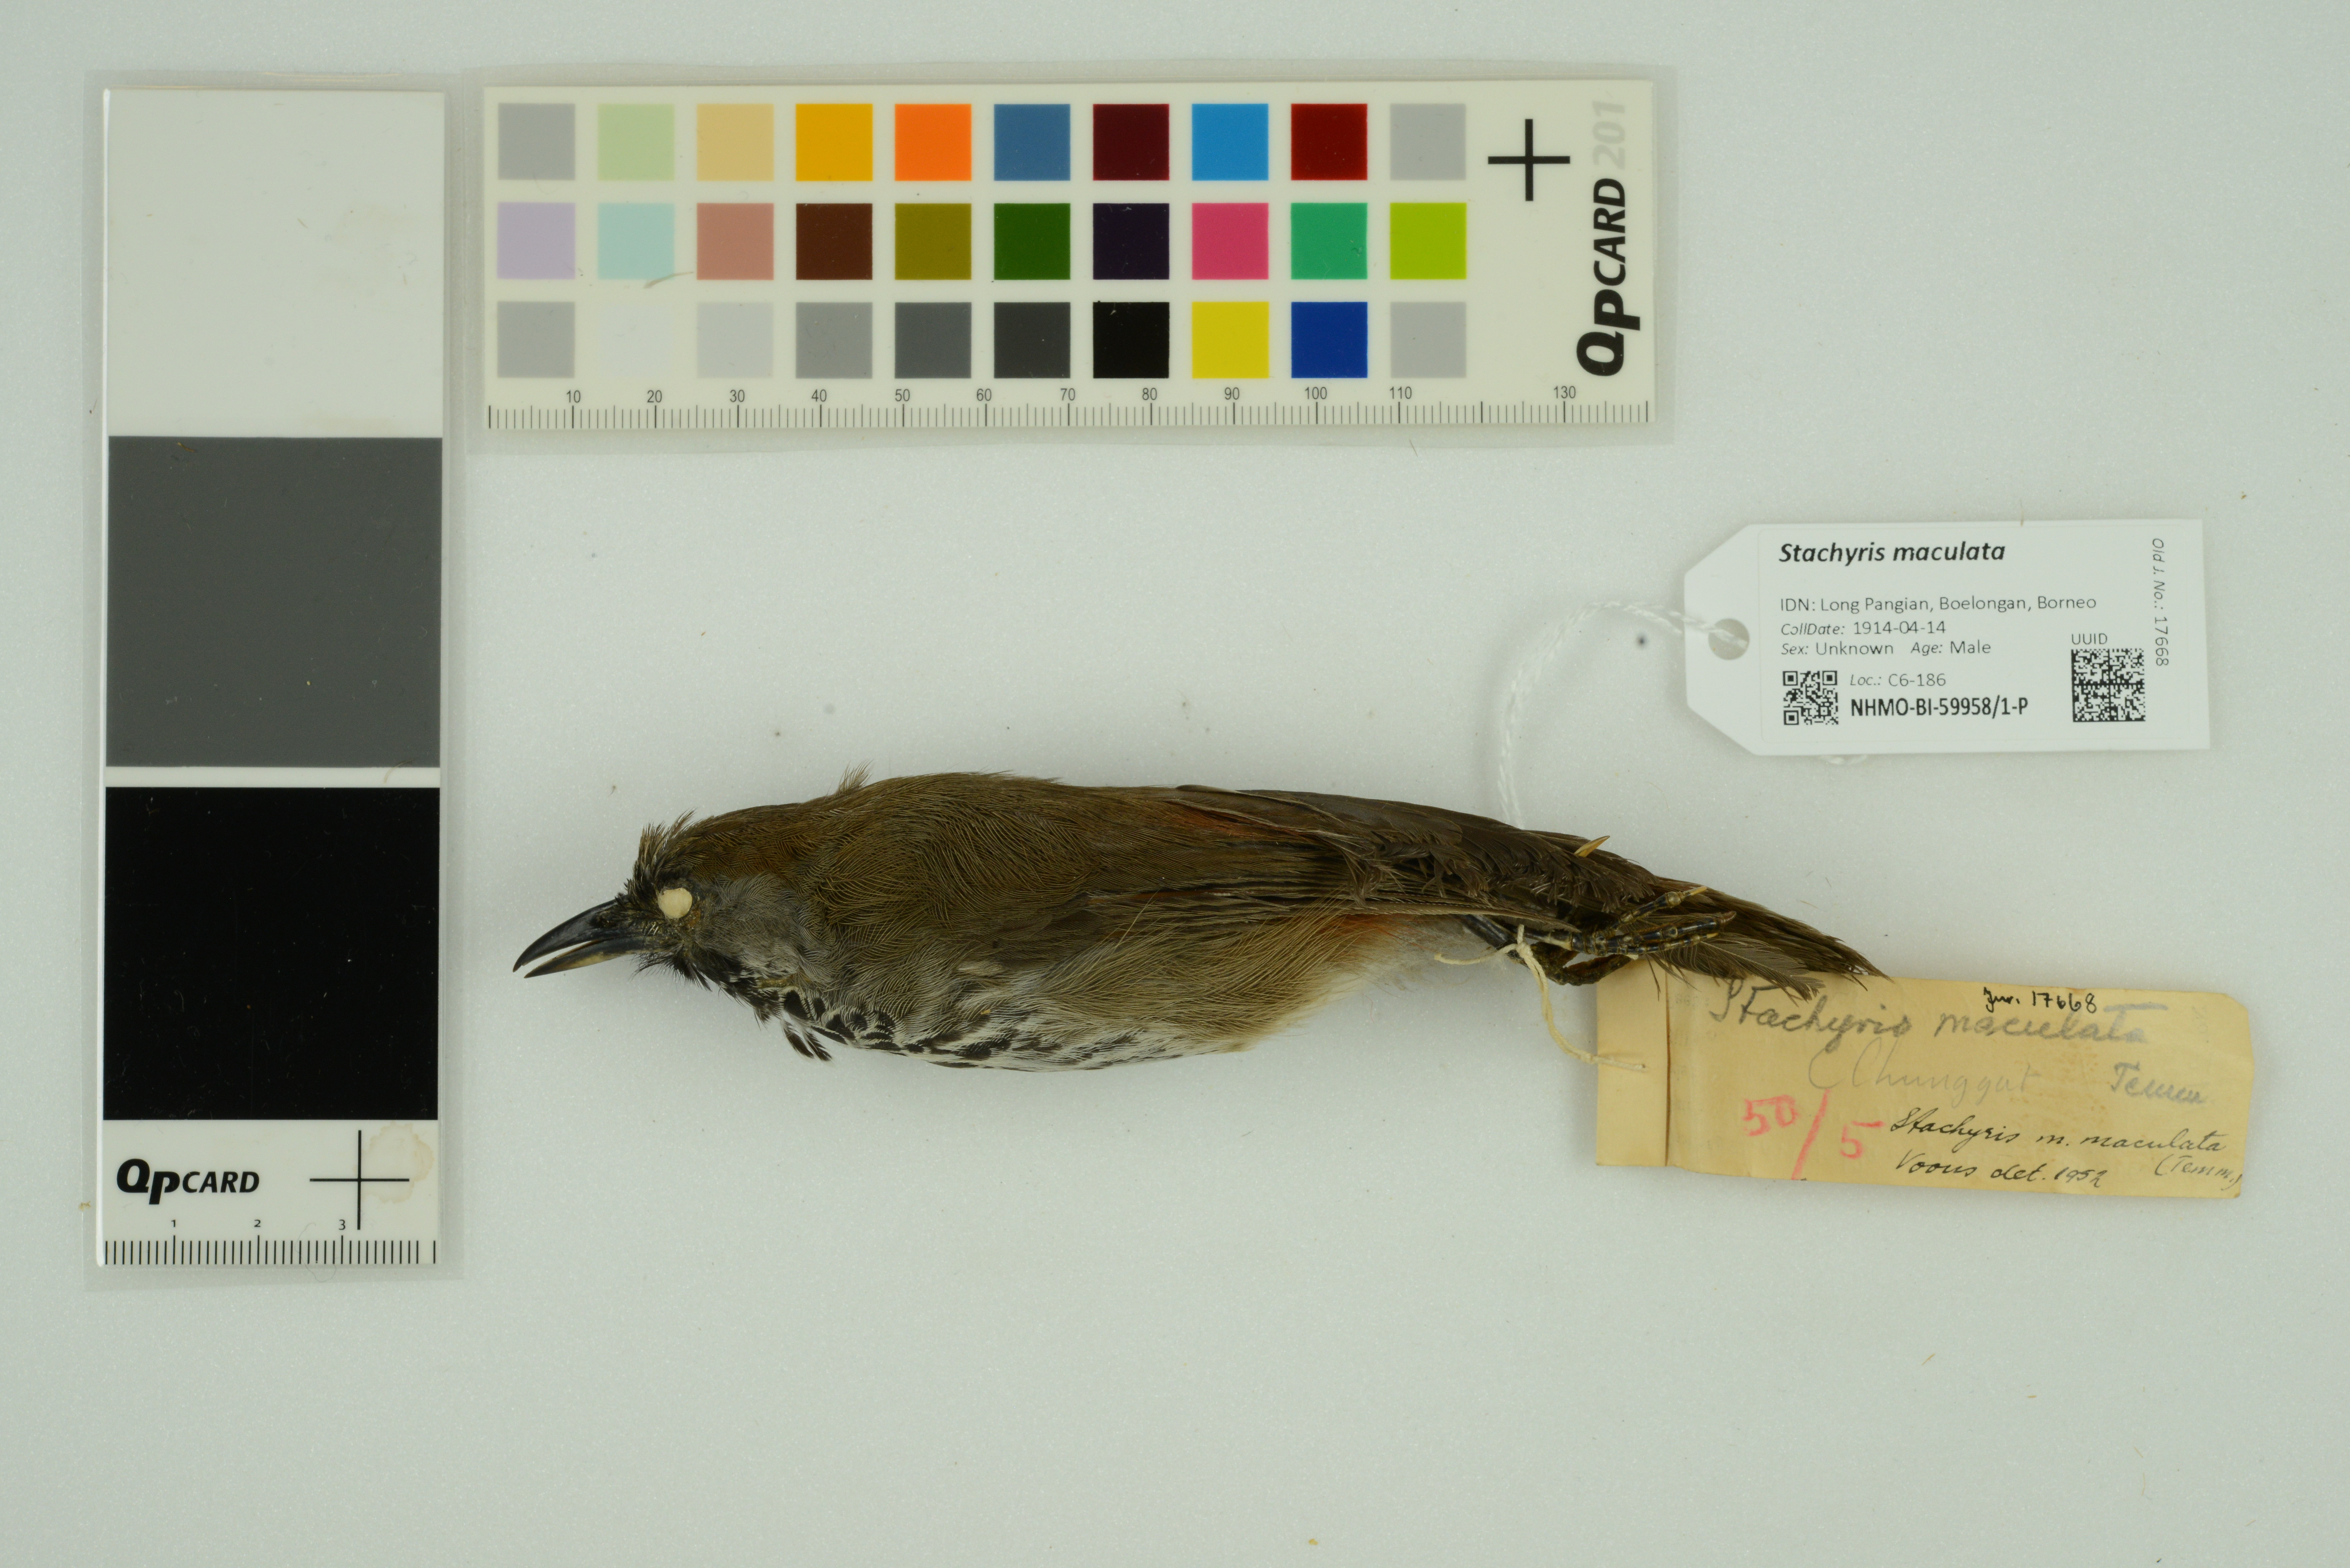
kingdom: Animalia
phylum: Chordata
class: Aves
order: Passeriformes
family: Timaliidae
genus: Stachyris
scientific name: Stachyris maculata
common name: Chestnut-rumped babbler
